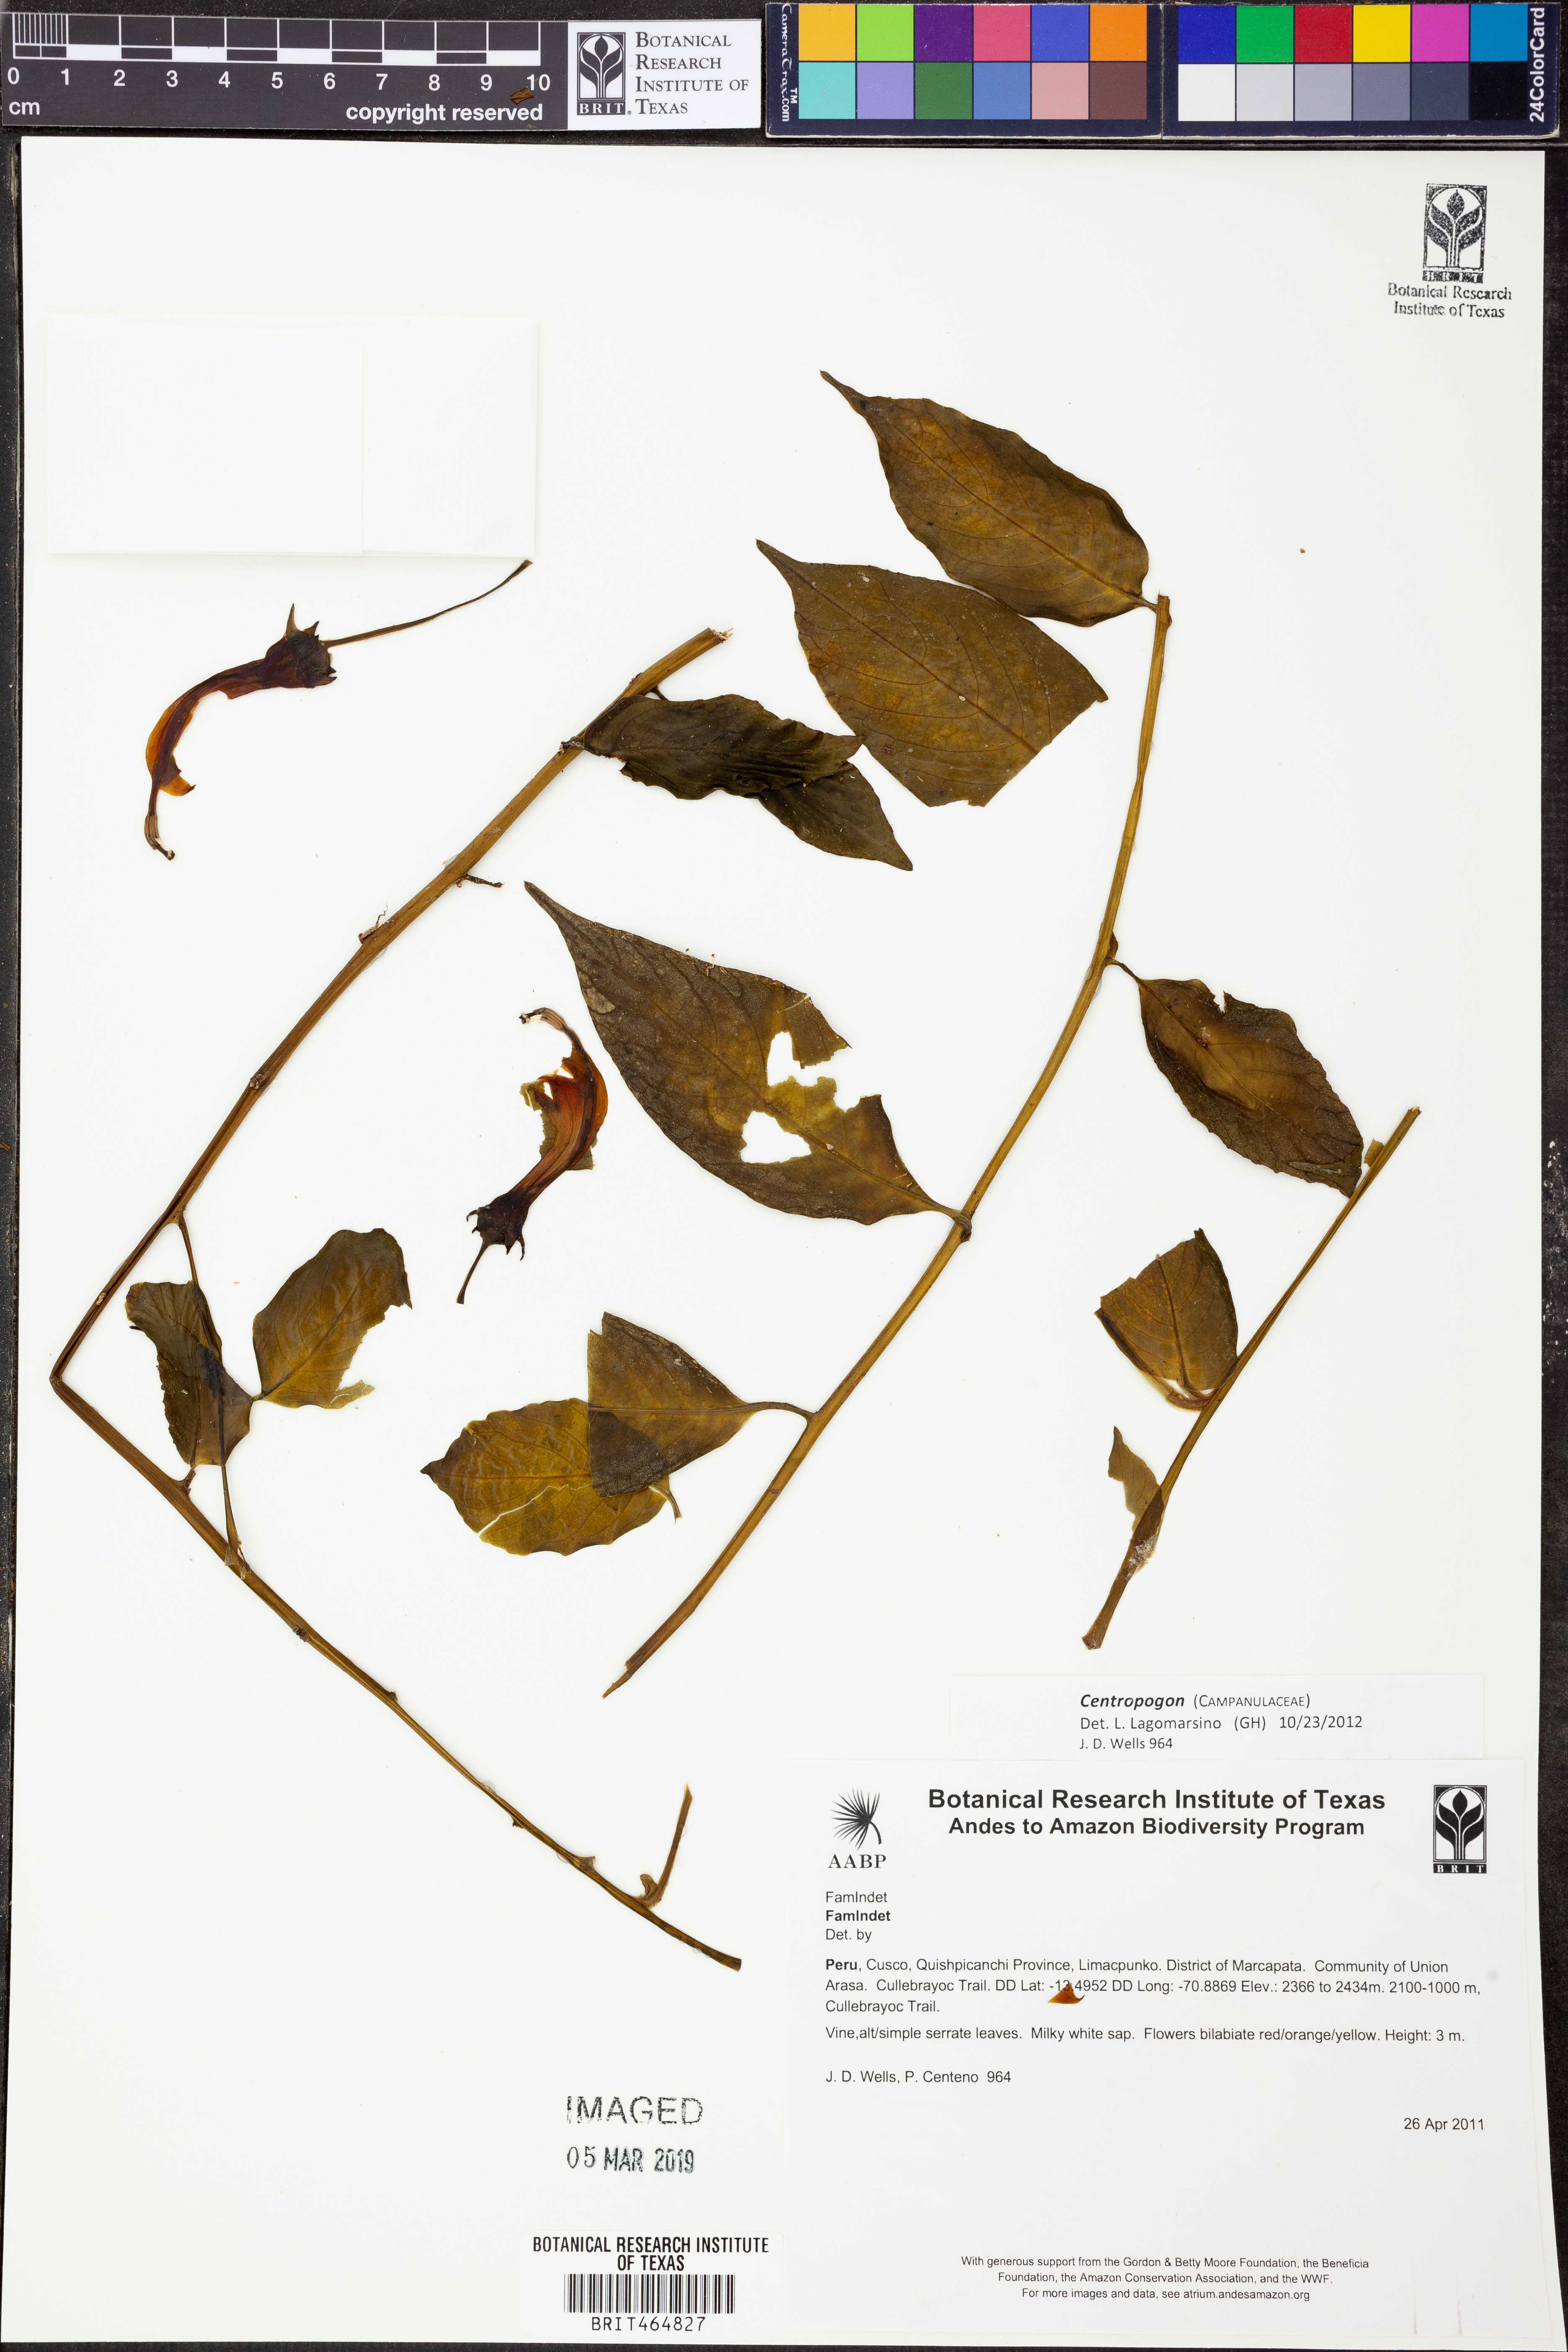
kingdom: Plantae
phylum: Tracheophyta
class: Magnoliopsida
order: Asterales
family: Campanulaceae
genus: Centropogon
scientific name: Centropogon
